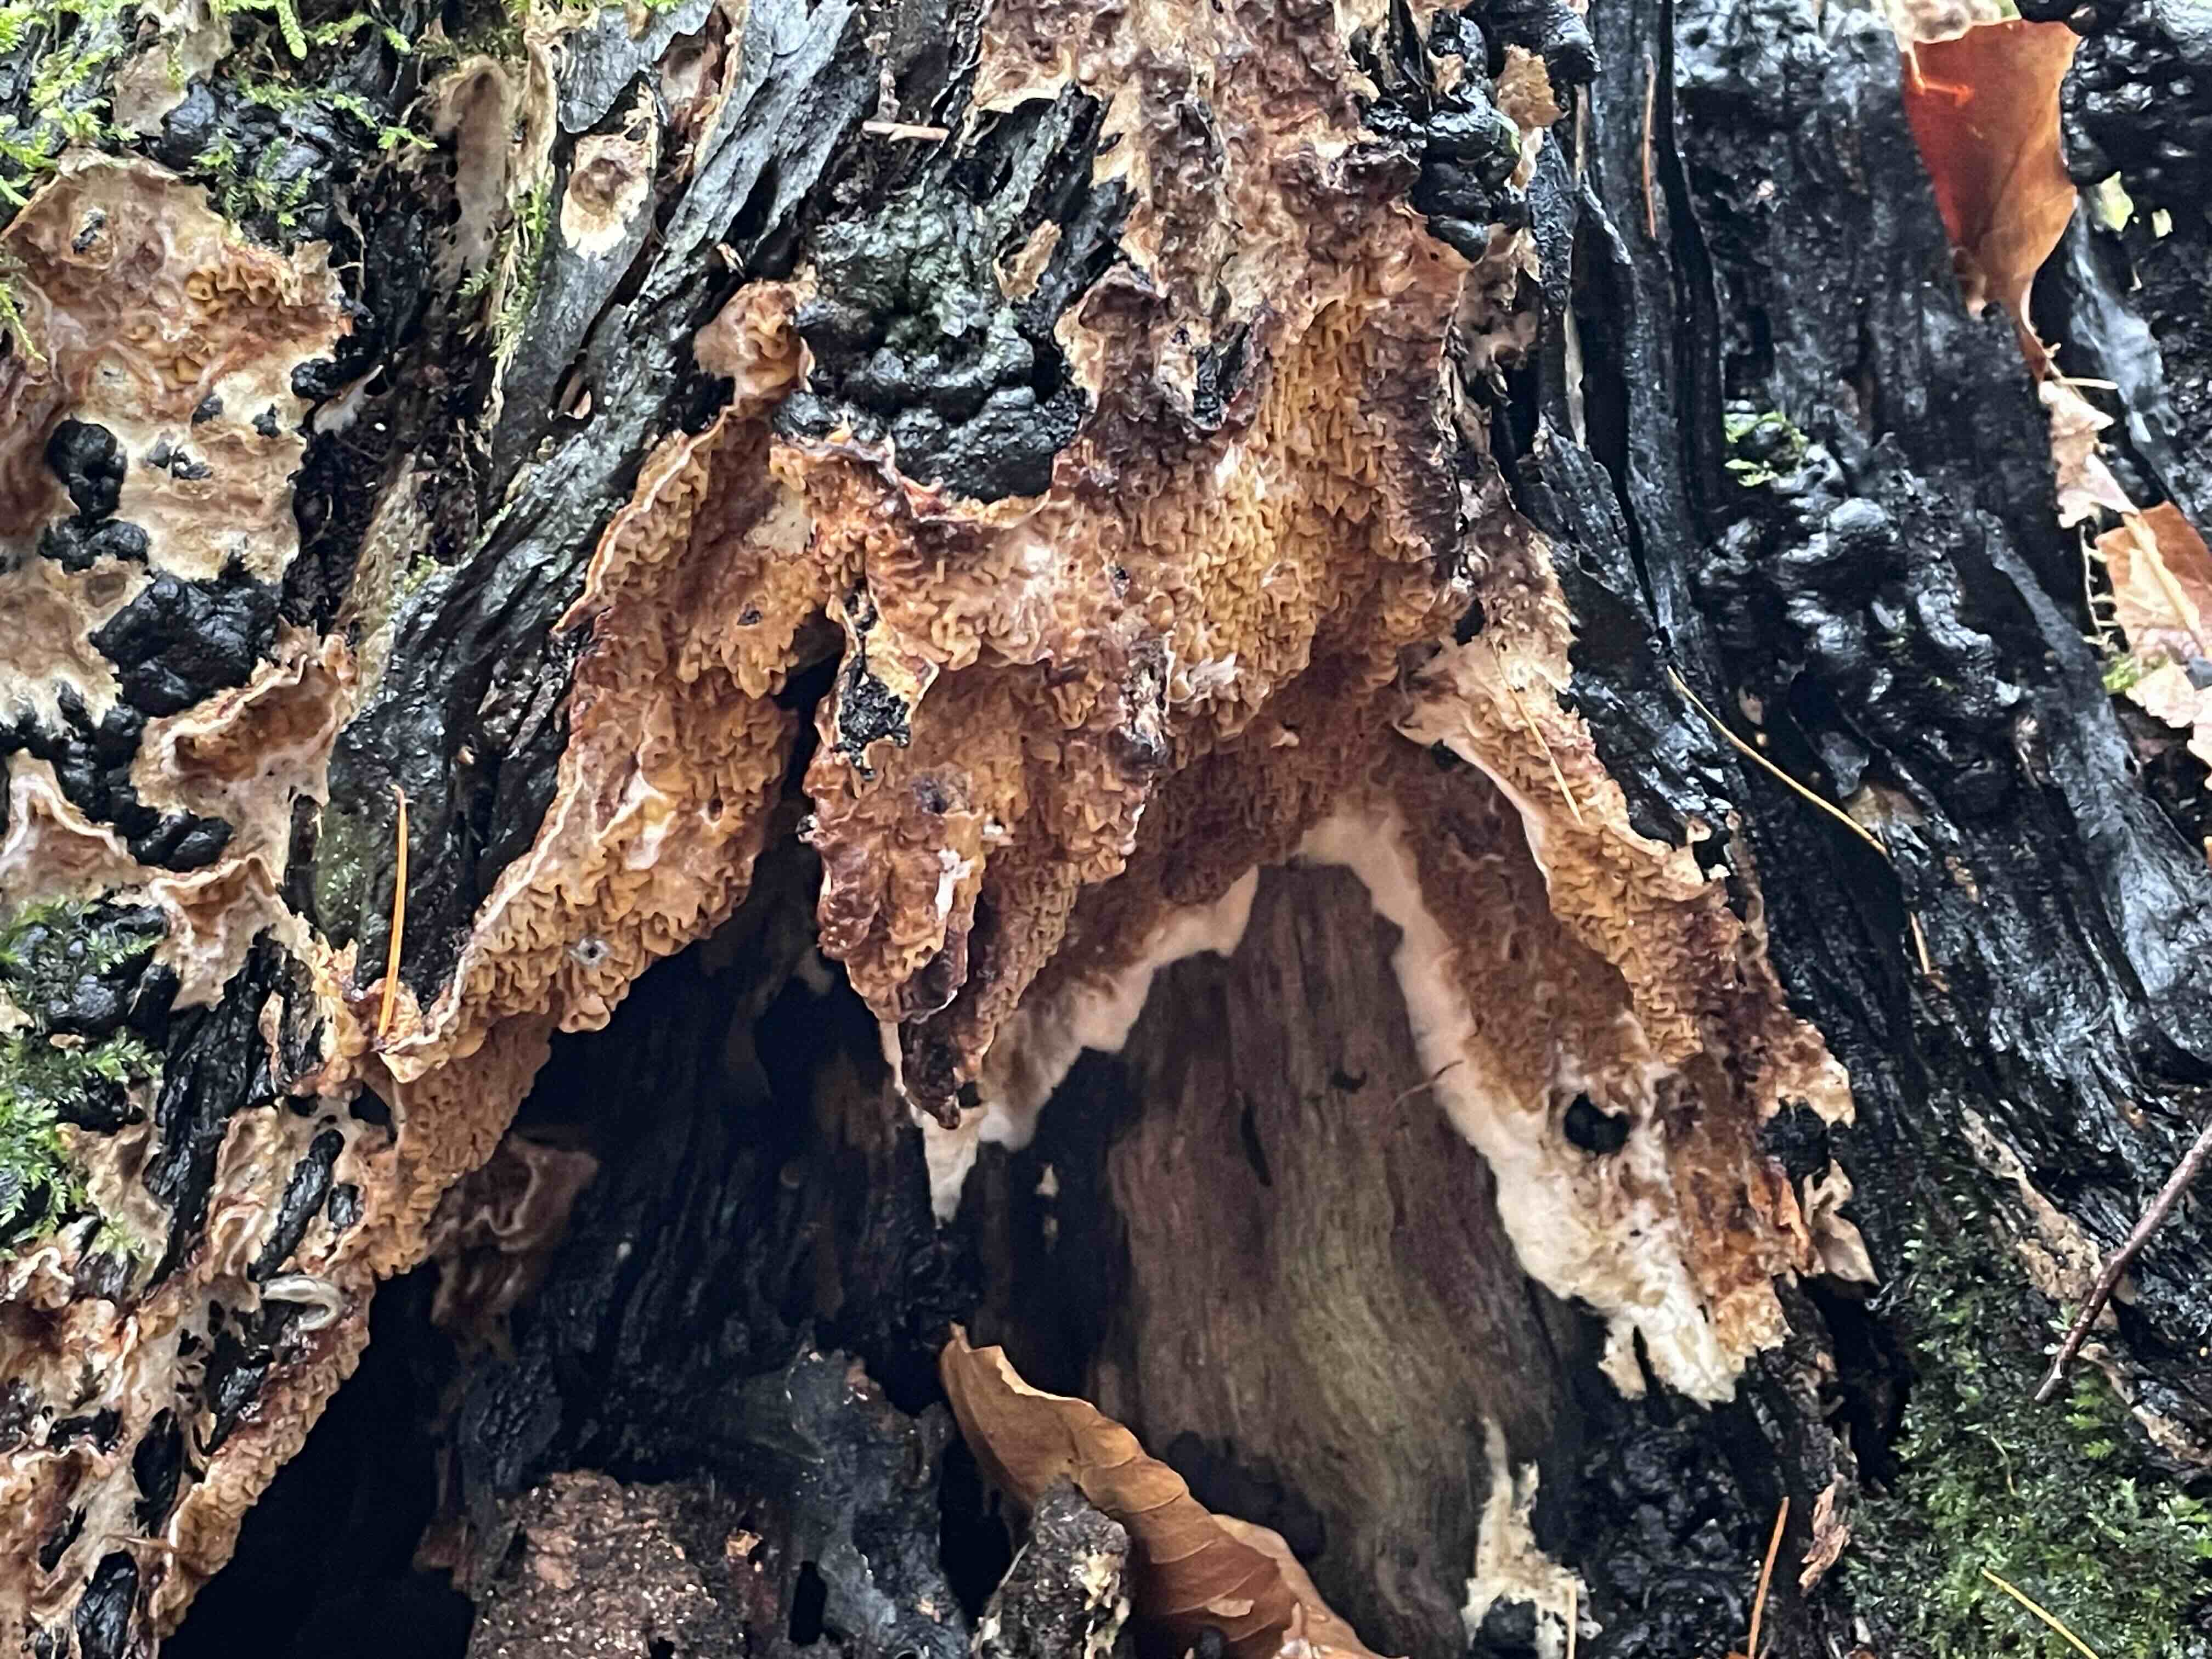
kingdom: Fungi
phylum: Basidiomycota
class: Agaricomycetes
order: Boletales
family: Serpulaceae
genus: Serpula
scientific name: Serpula himantioides
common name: tyndkødet hussvamp
